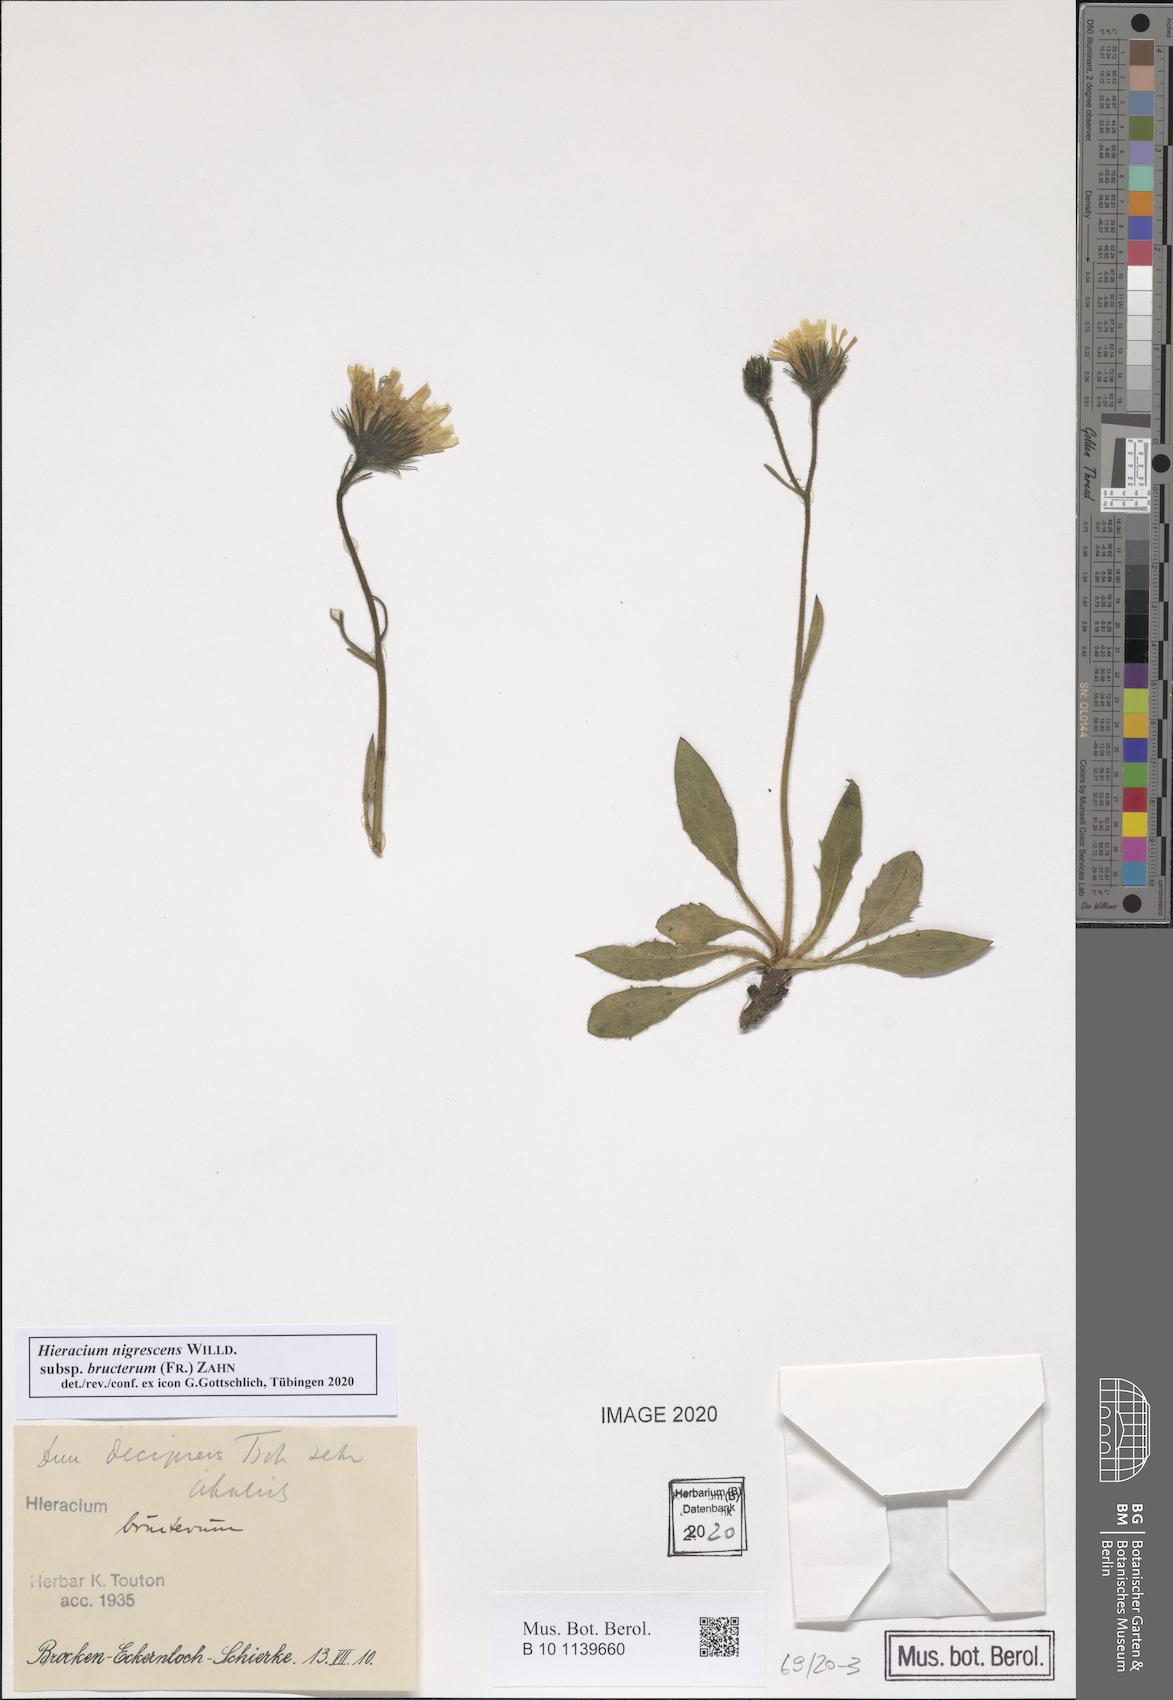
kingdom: Plantae
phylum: Tracheophyta
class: Magnoliopsida
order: Asterales
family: Asteraceae
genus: Hieracium
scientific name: Hieracium nigrescens
